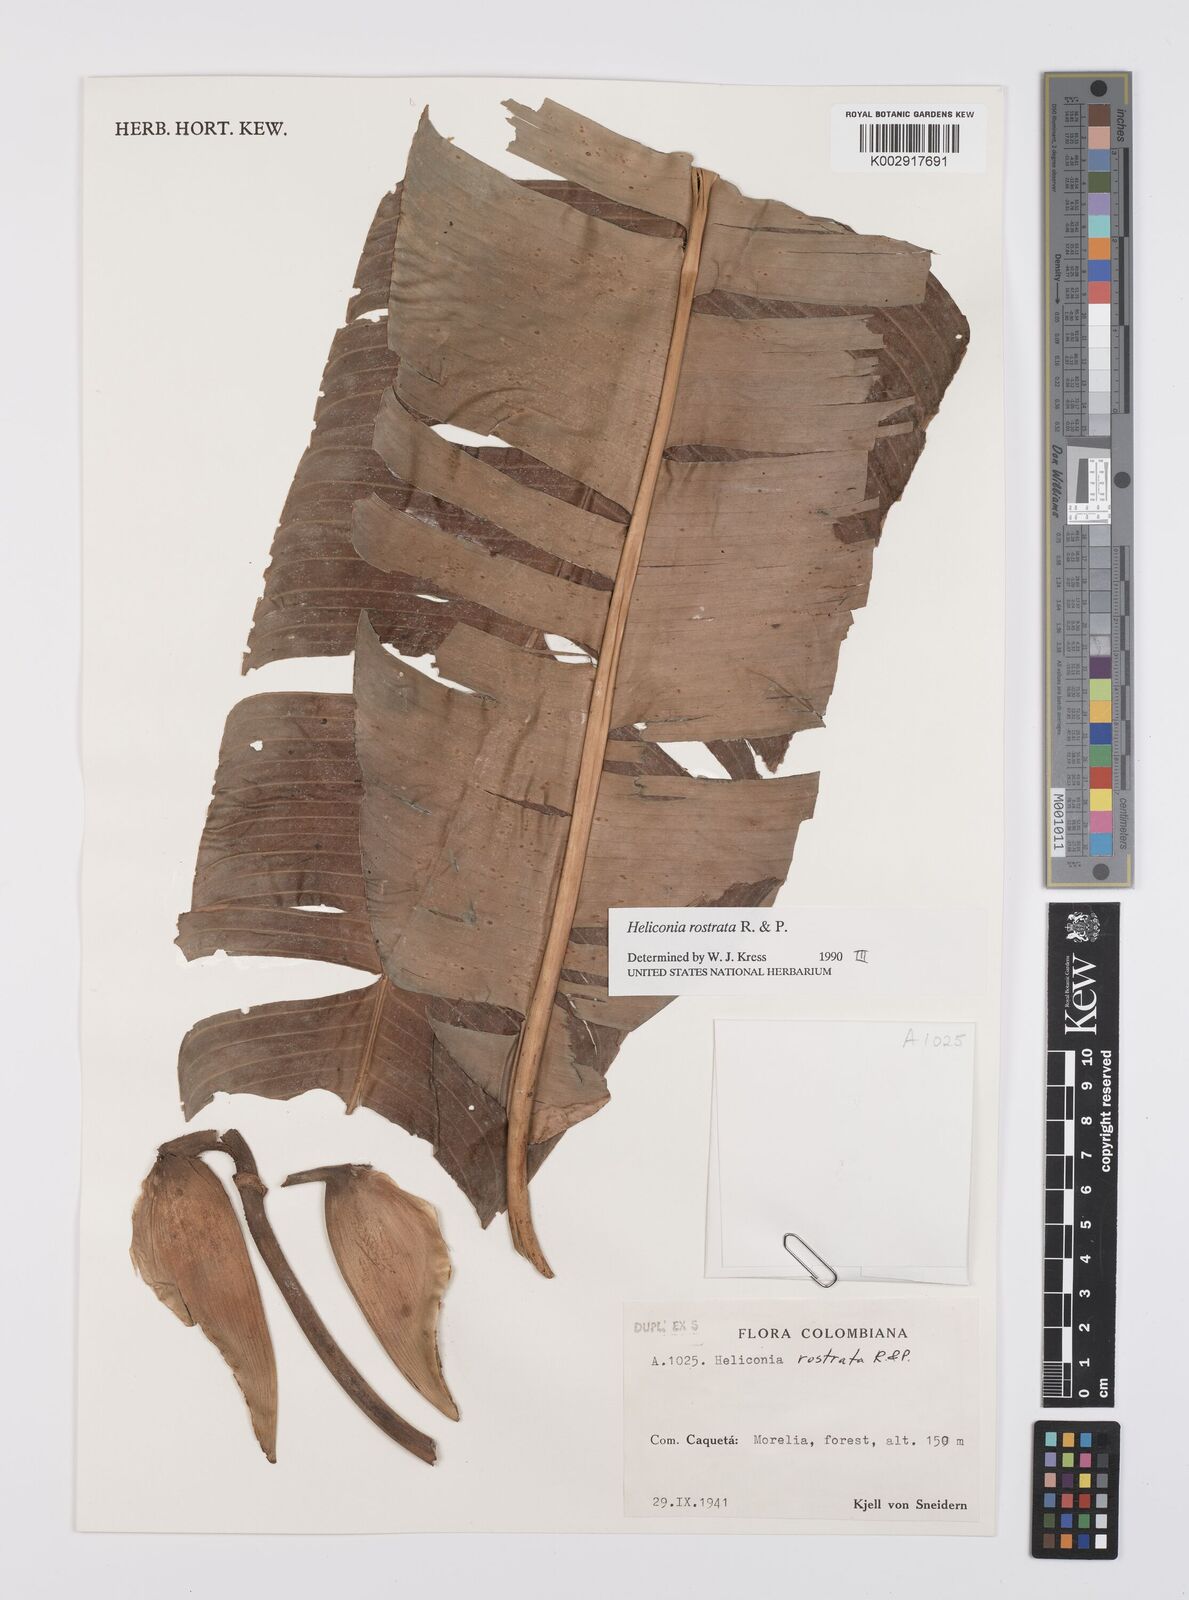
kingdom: Plantae
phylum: Tracheophyta
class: Liliopsida
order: Zingiberales
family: Heliconiaceae
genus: Heliconia
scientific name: Heliconia rostrata
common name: False bird of paradise
